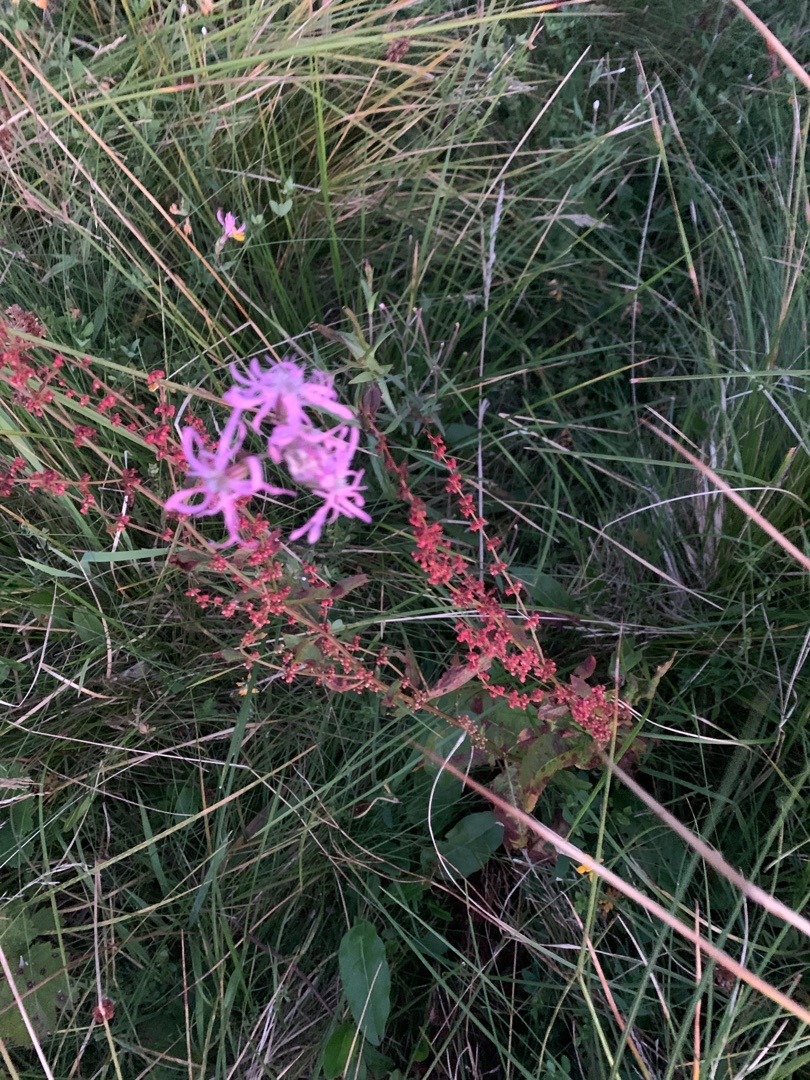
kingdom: Plantae
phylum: Tracheophyta
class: Magnoliopsida
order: Caryophyllales
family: Caryophyllaceae
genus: Silene
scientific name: Silene flos-cuculi
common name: Trævlekrone
